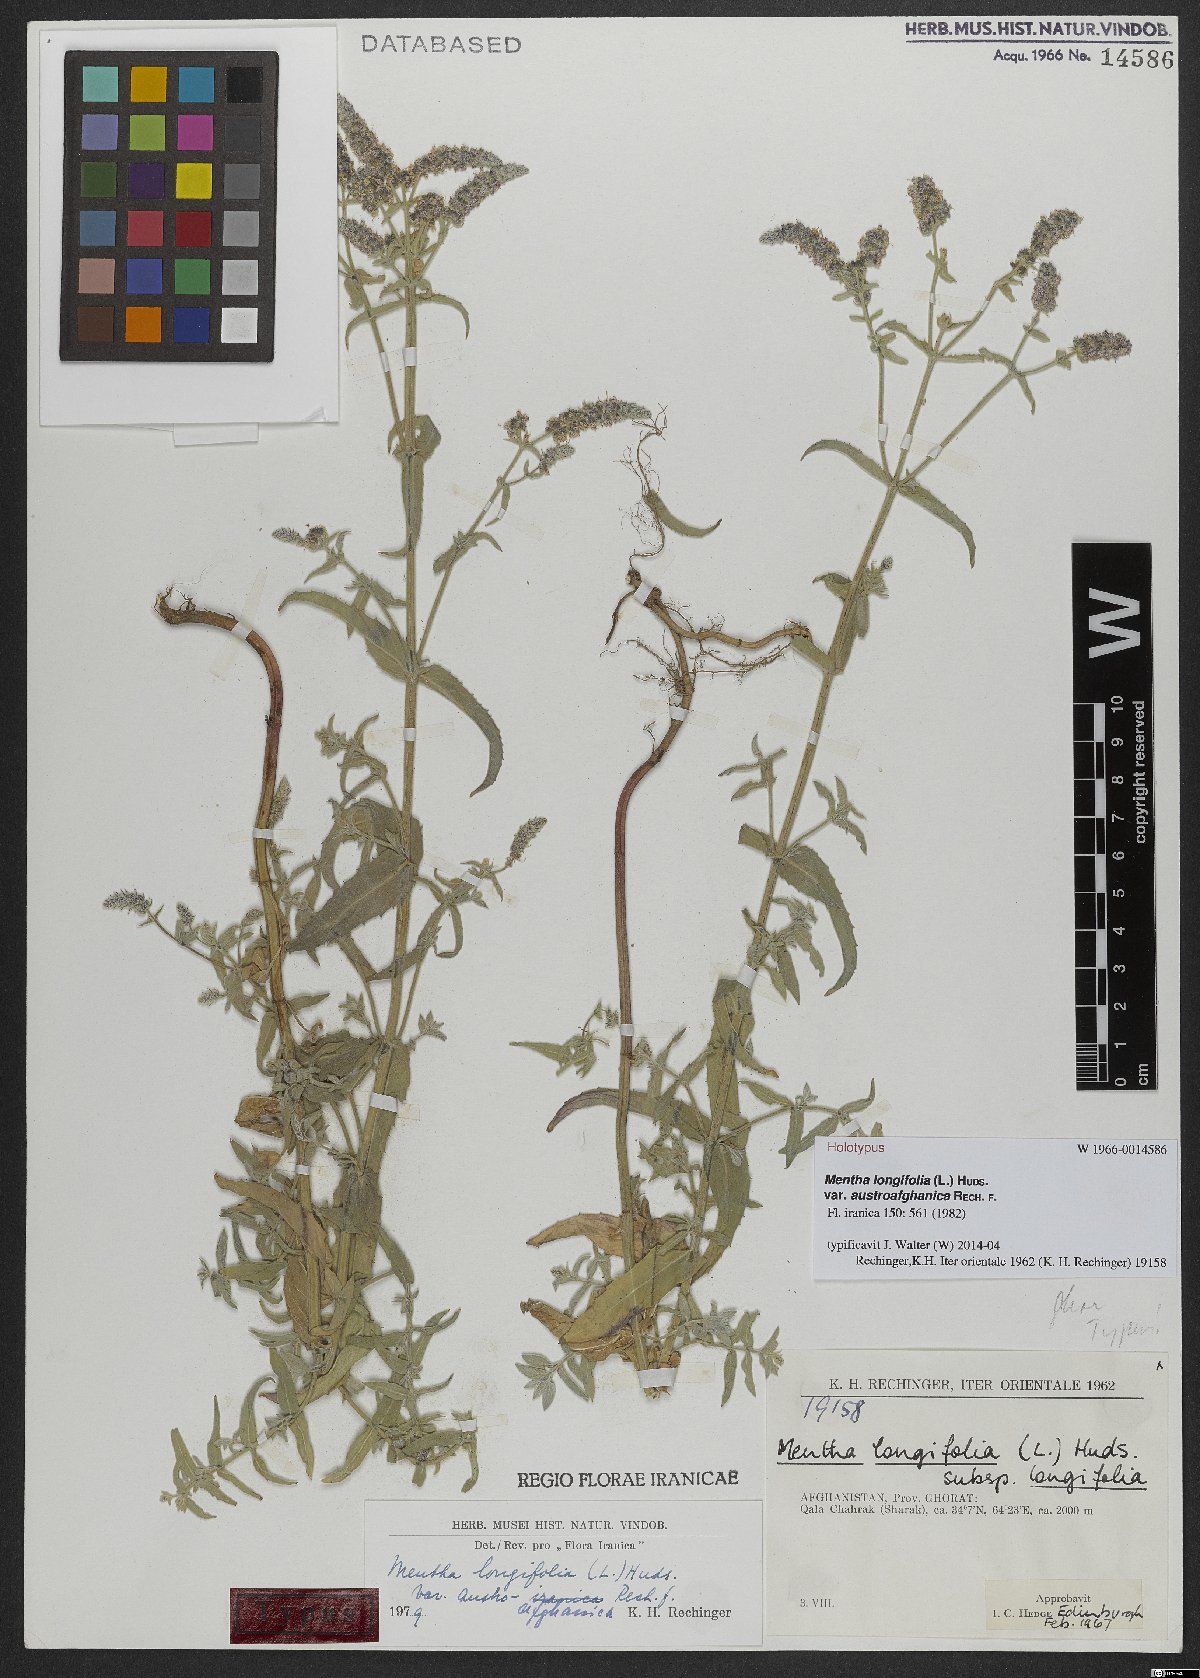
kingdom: Plantae
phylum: Tracheophyta
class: Magnoliopsida
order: Lamiales
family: Lamiaceae
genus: Mentha
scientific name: Mentha longifolia
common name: Horse mint
